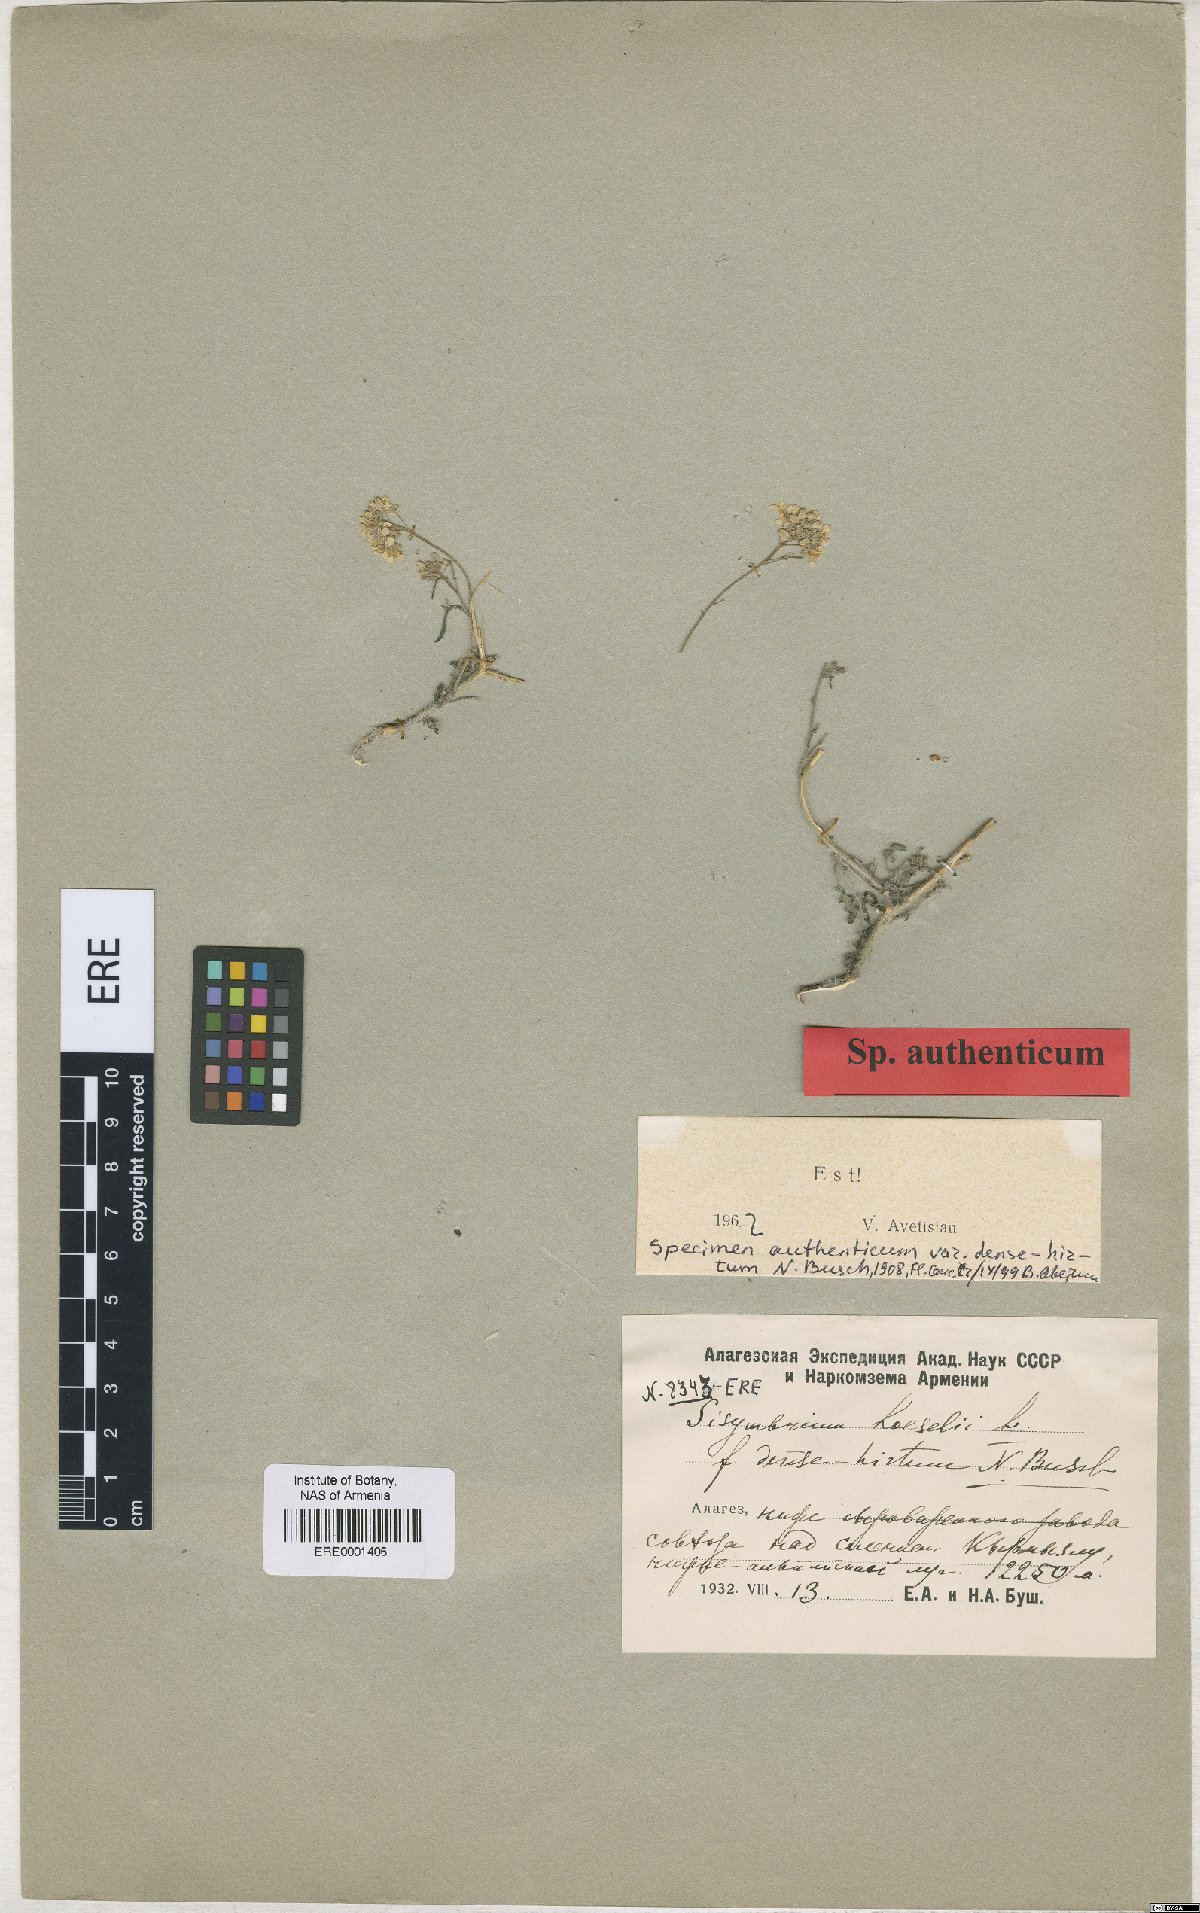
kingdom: Plantae
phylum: Tracheophyta
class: Magnoliopsida
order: Brassicales
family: Brassicaceae
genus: Sisymbrium
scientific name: Sisymbrium loeselii
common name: False london-rocket
